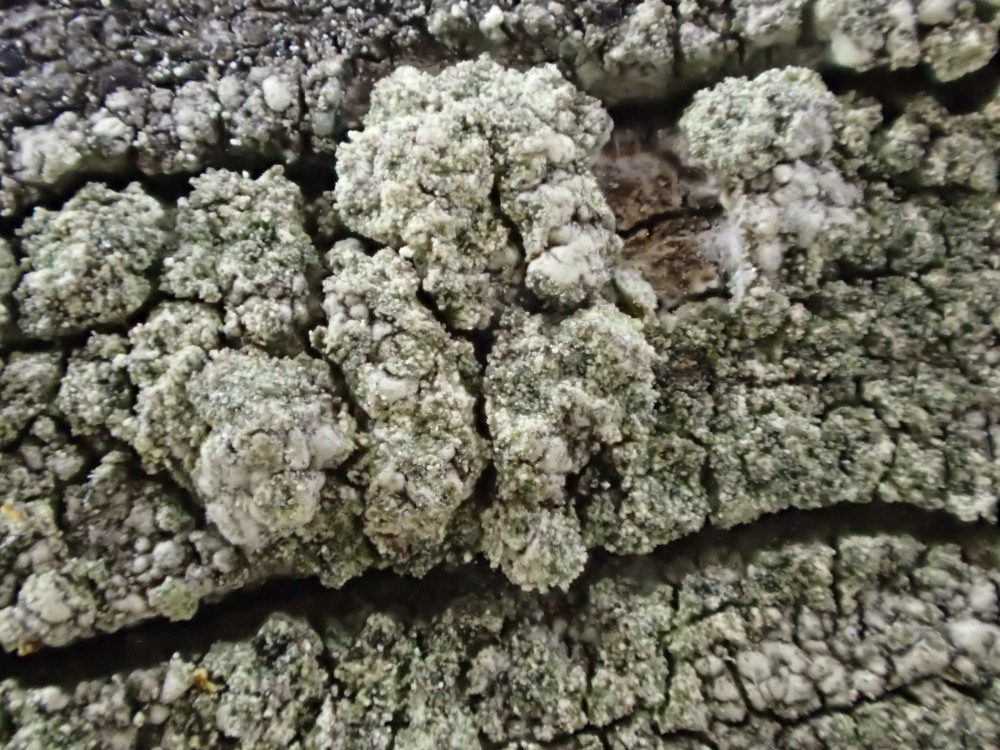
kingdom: Fungi
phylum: Ascomycota
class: Lecanoromycetes
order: Lecanorales
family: Lecanoraceae
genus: Lecidella
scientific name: Lecidella scabra
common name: skurvet skivelav
